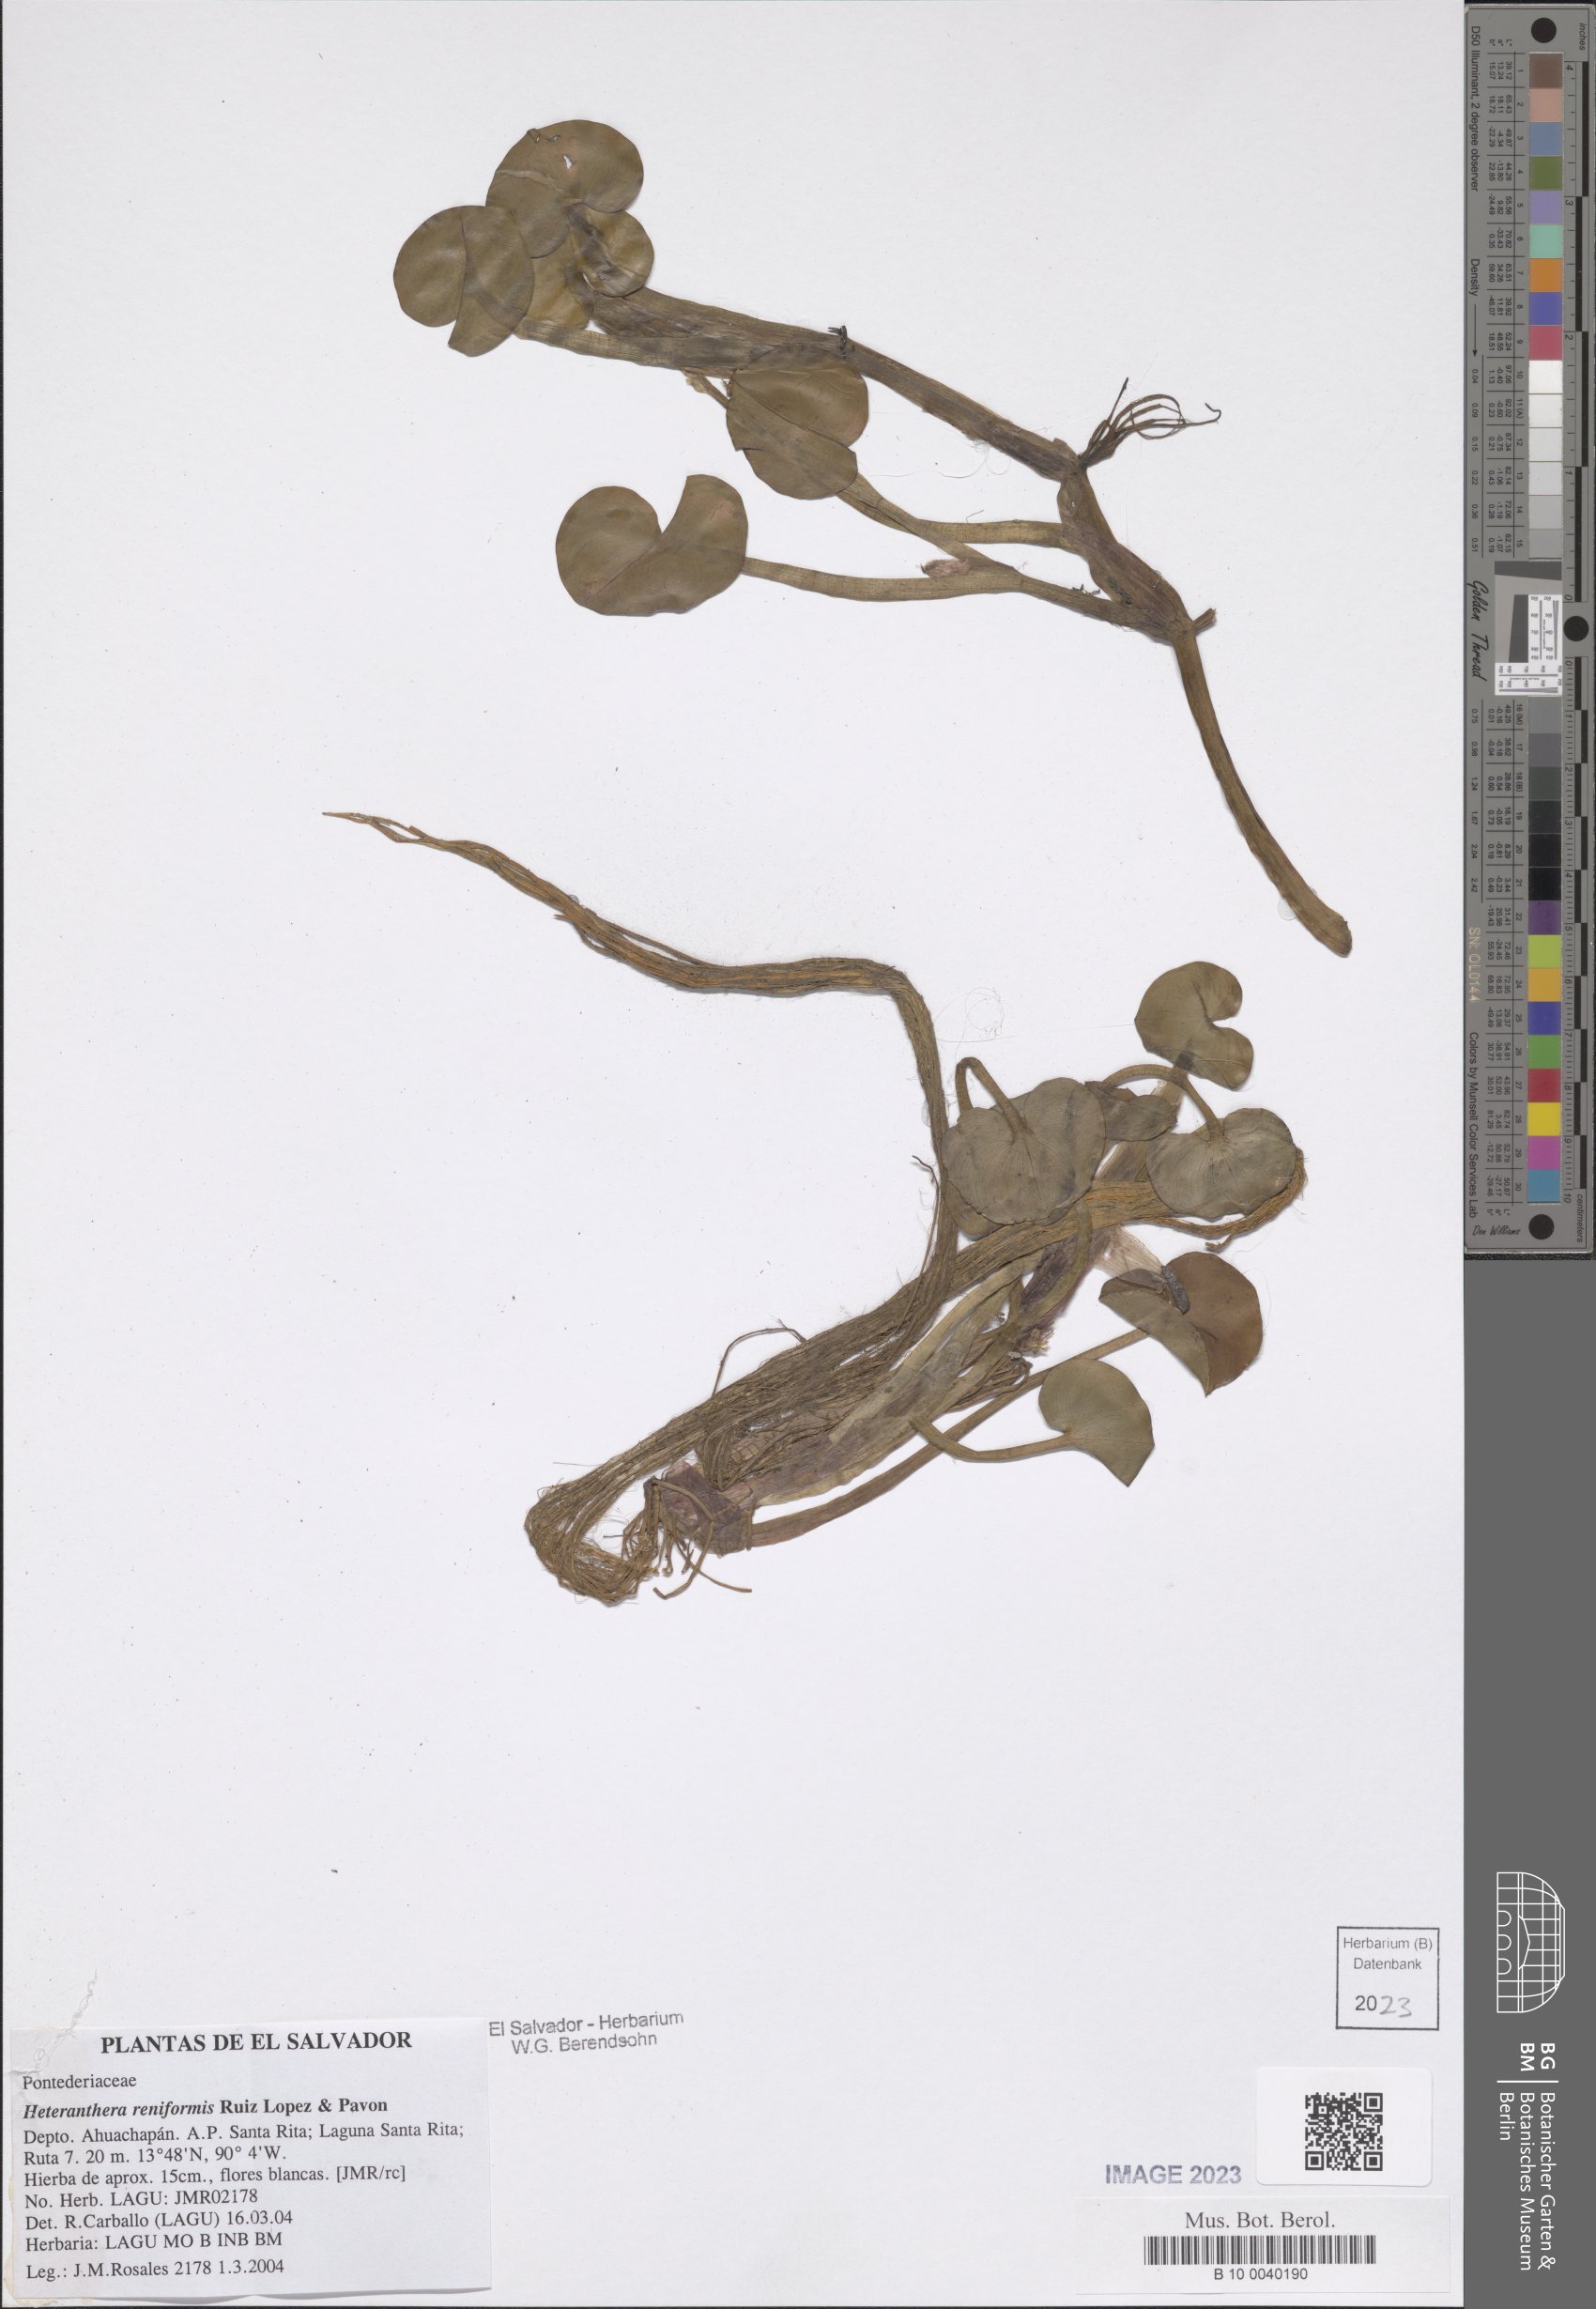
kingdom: Plantae
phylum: Tracheophyta
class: Liliopsida
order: Commelinales
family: Pontederiaceae
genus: Heteranthera
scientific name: Heteranthera reniformis
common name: Kidneyleaf mudplantain
